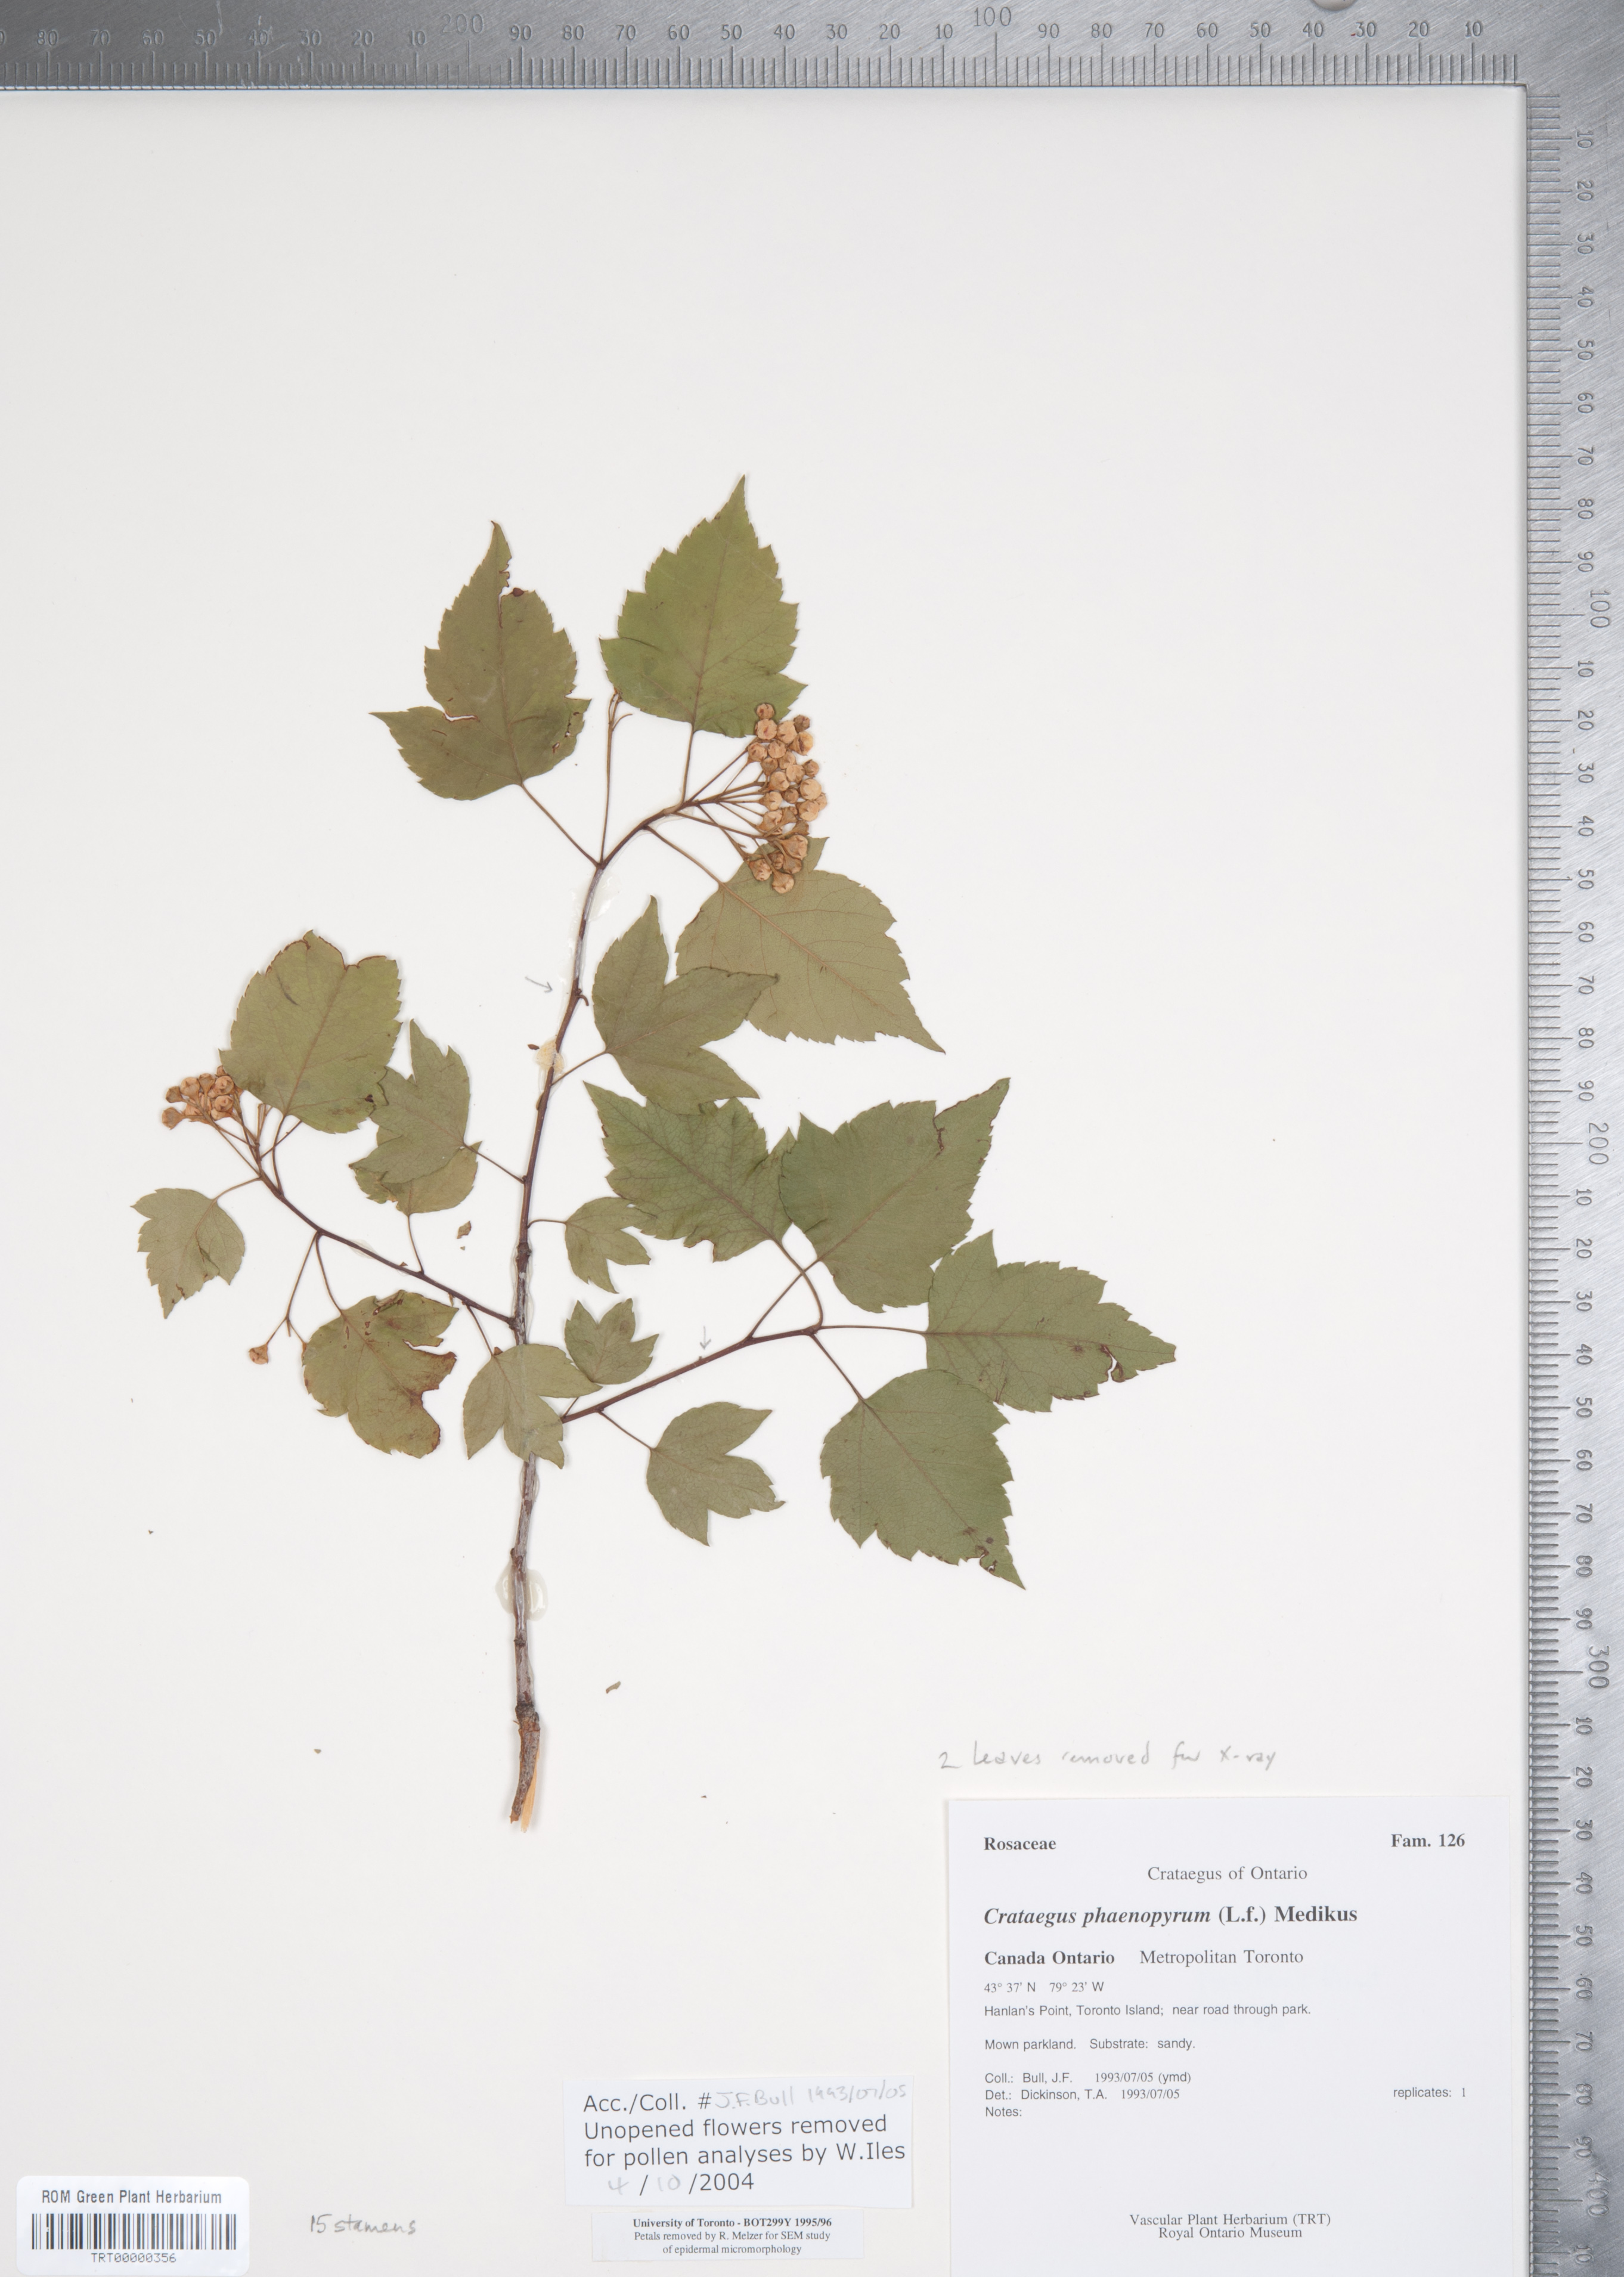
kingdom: Plantae
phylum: Tracheophyta
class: Magnoliopsida
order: Rosales
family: Rosaceae
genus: Crataegus
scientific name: Crataegus phaenopyrum
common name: Washington hawthorn
